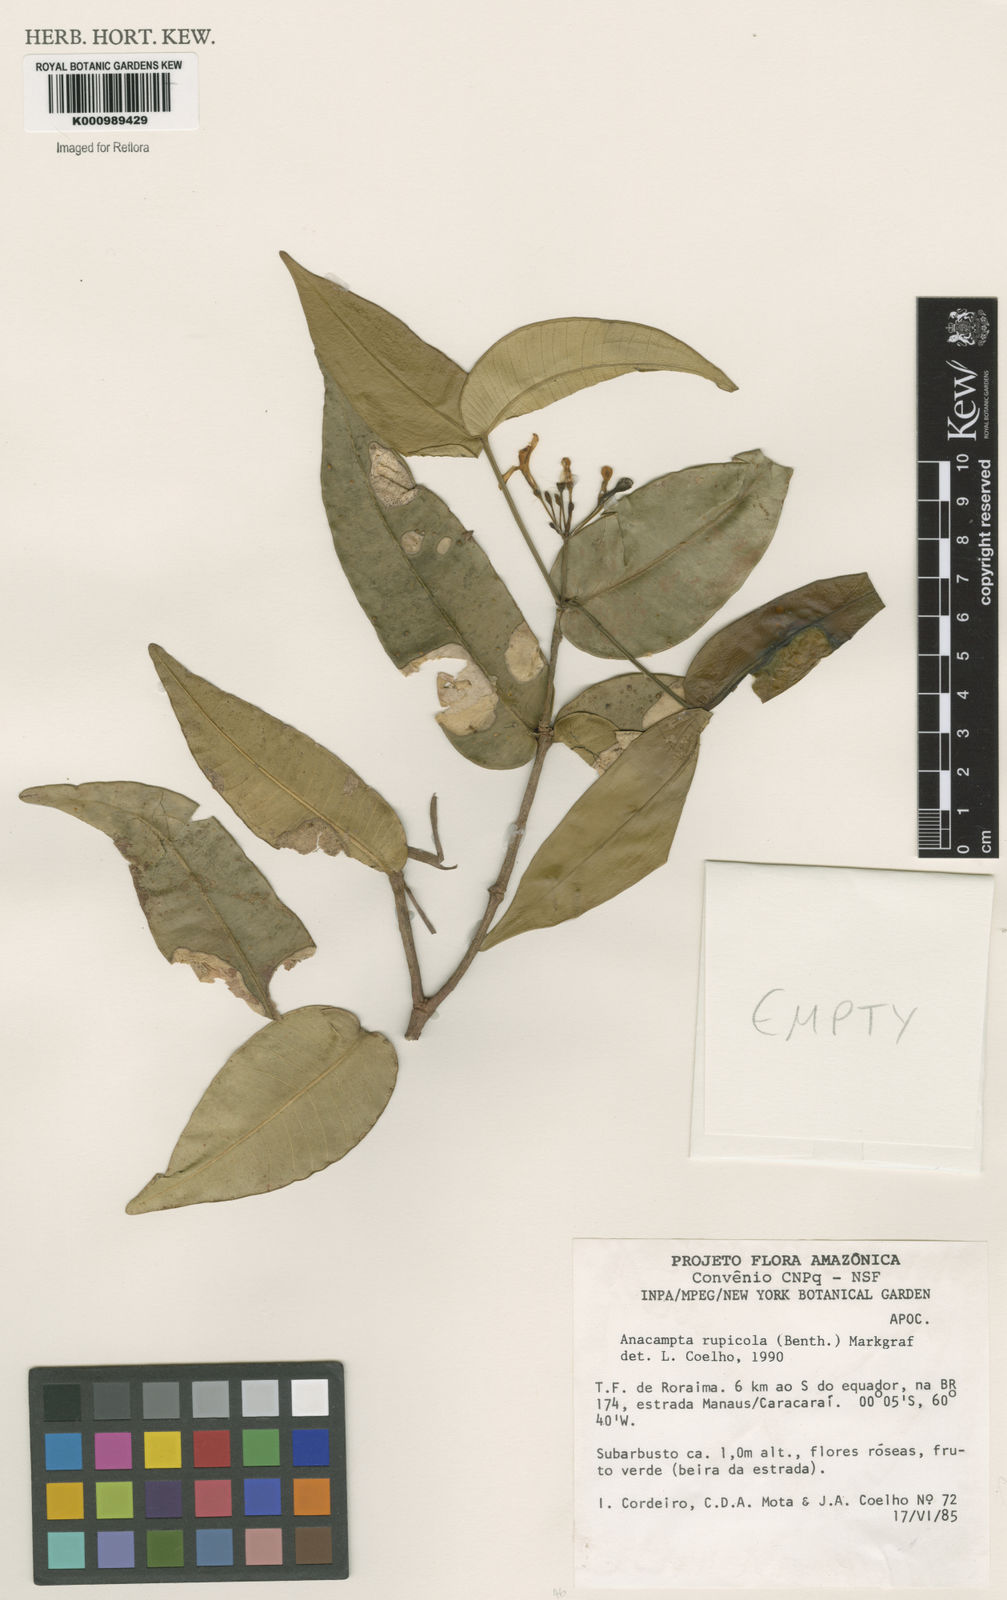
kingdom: Plantae
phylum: Tracheophyta
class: Magnoliopsida
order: Gentianales
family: Apocynaceae
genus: Tabernaemontana
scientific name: Tabernaemontana rupicola
